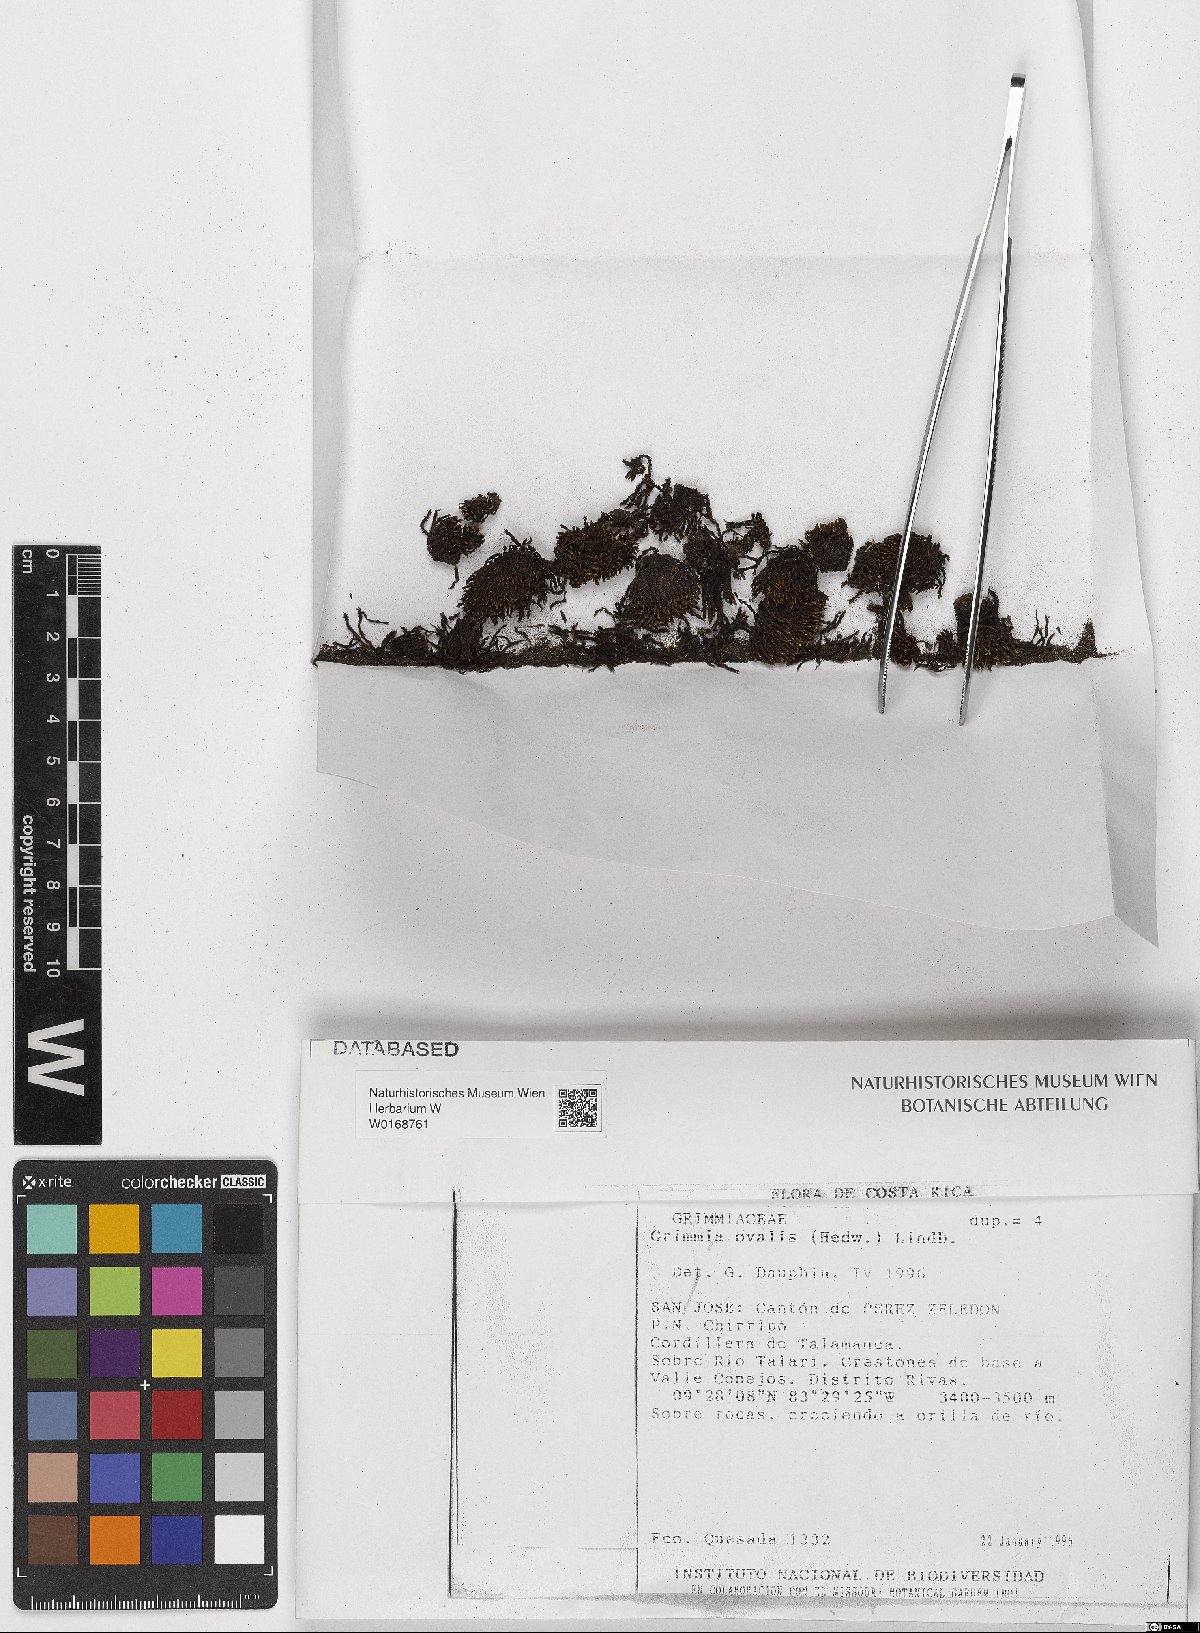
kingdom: Plantae
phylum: Bryophyta
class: Bryopsida
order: Grimmiales
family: Grimmiaceae
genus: Grimmia
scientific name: Grimmia ovalis
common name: Oval grimmia
